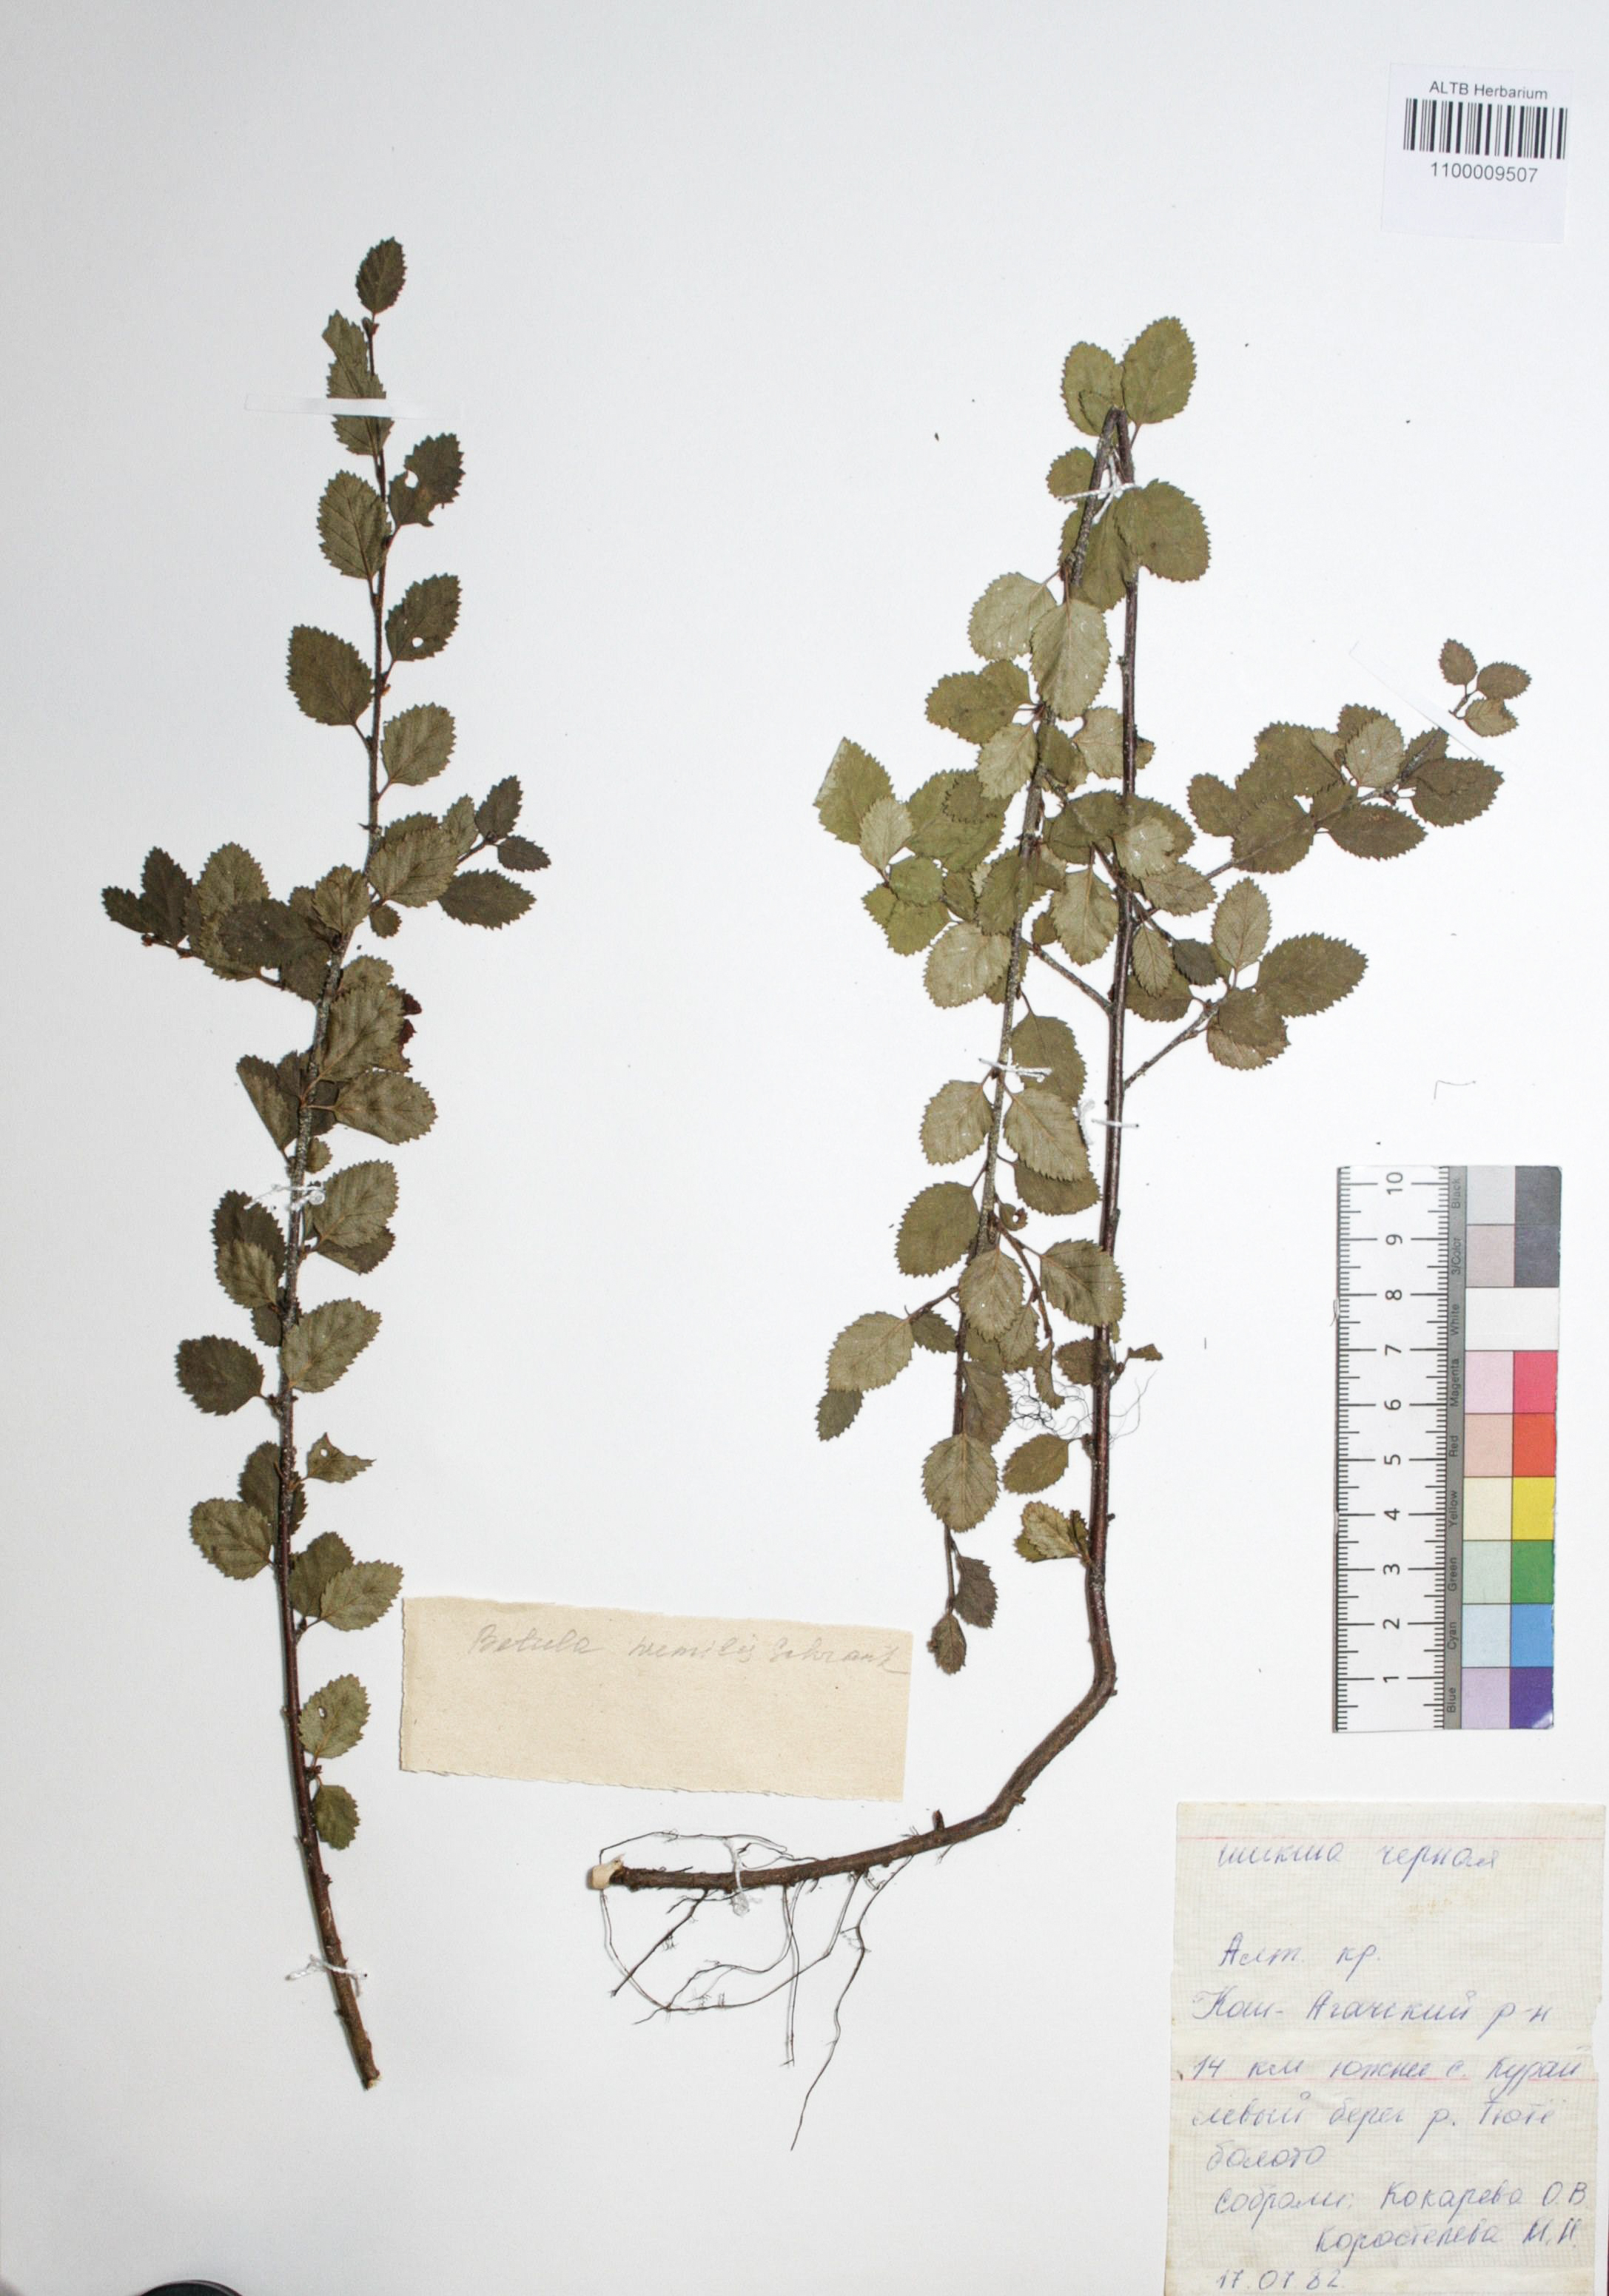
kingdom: Plantae
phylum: Tracheophyta
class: Magnoliopsida
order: Fagales
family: Betulaceae
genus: Betula
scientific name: Betula humilis
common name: Shrubby birch
